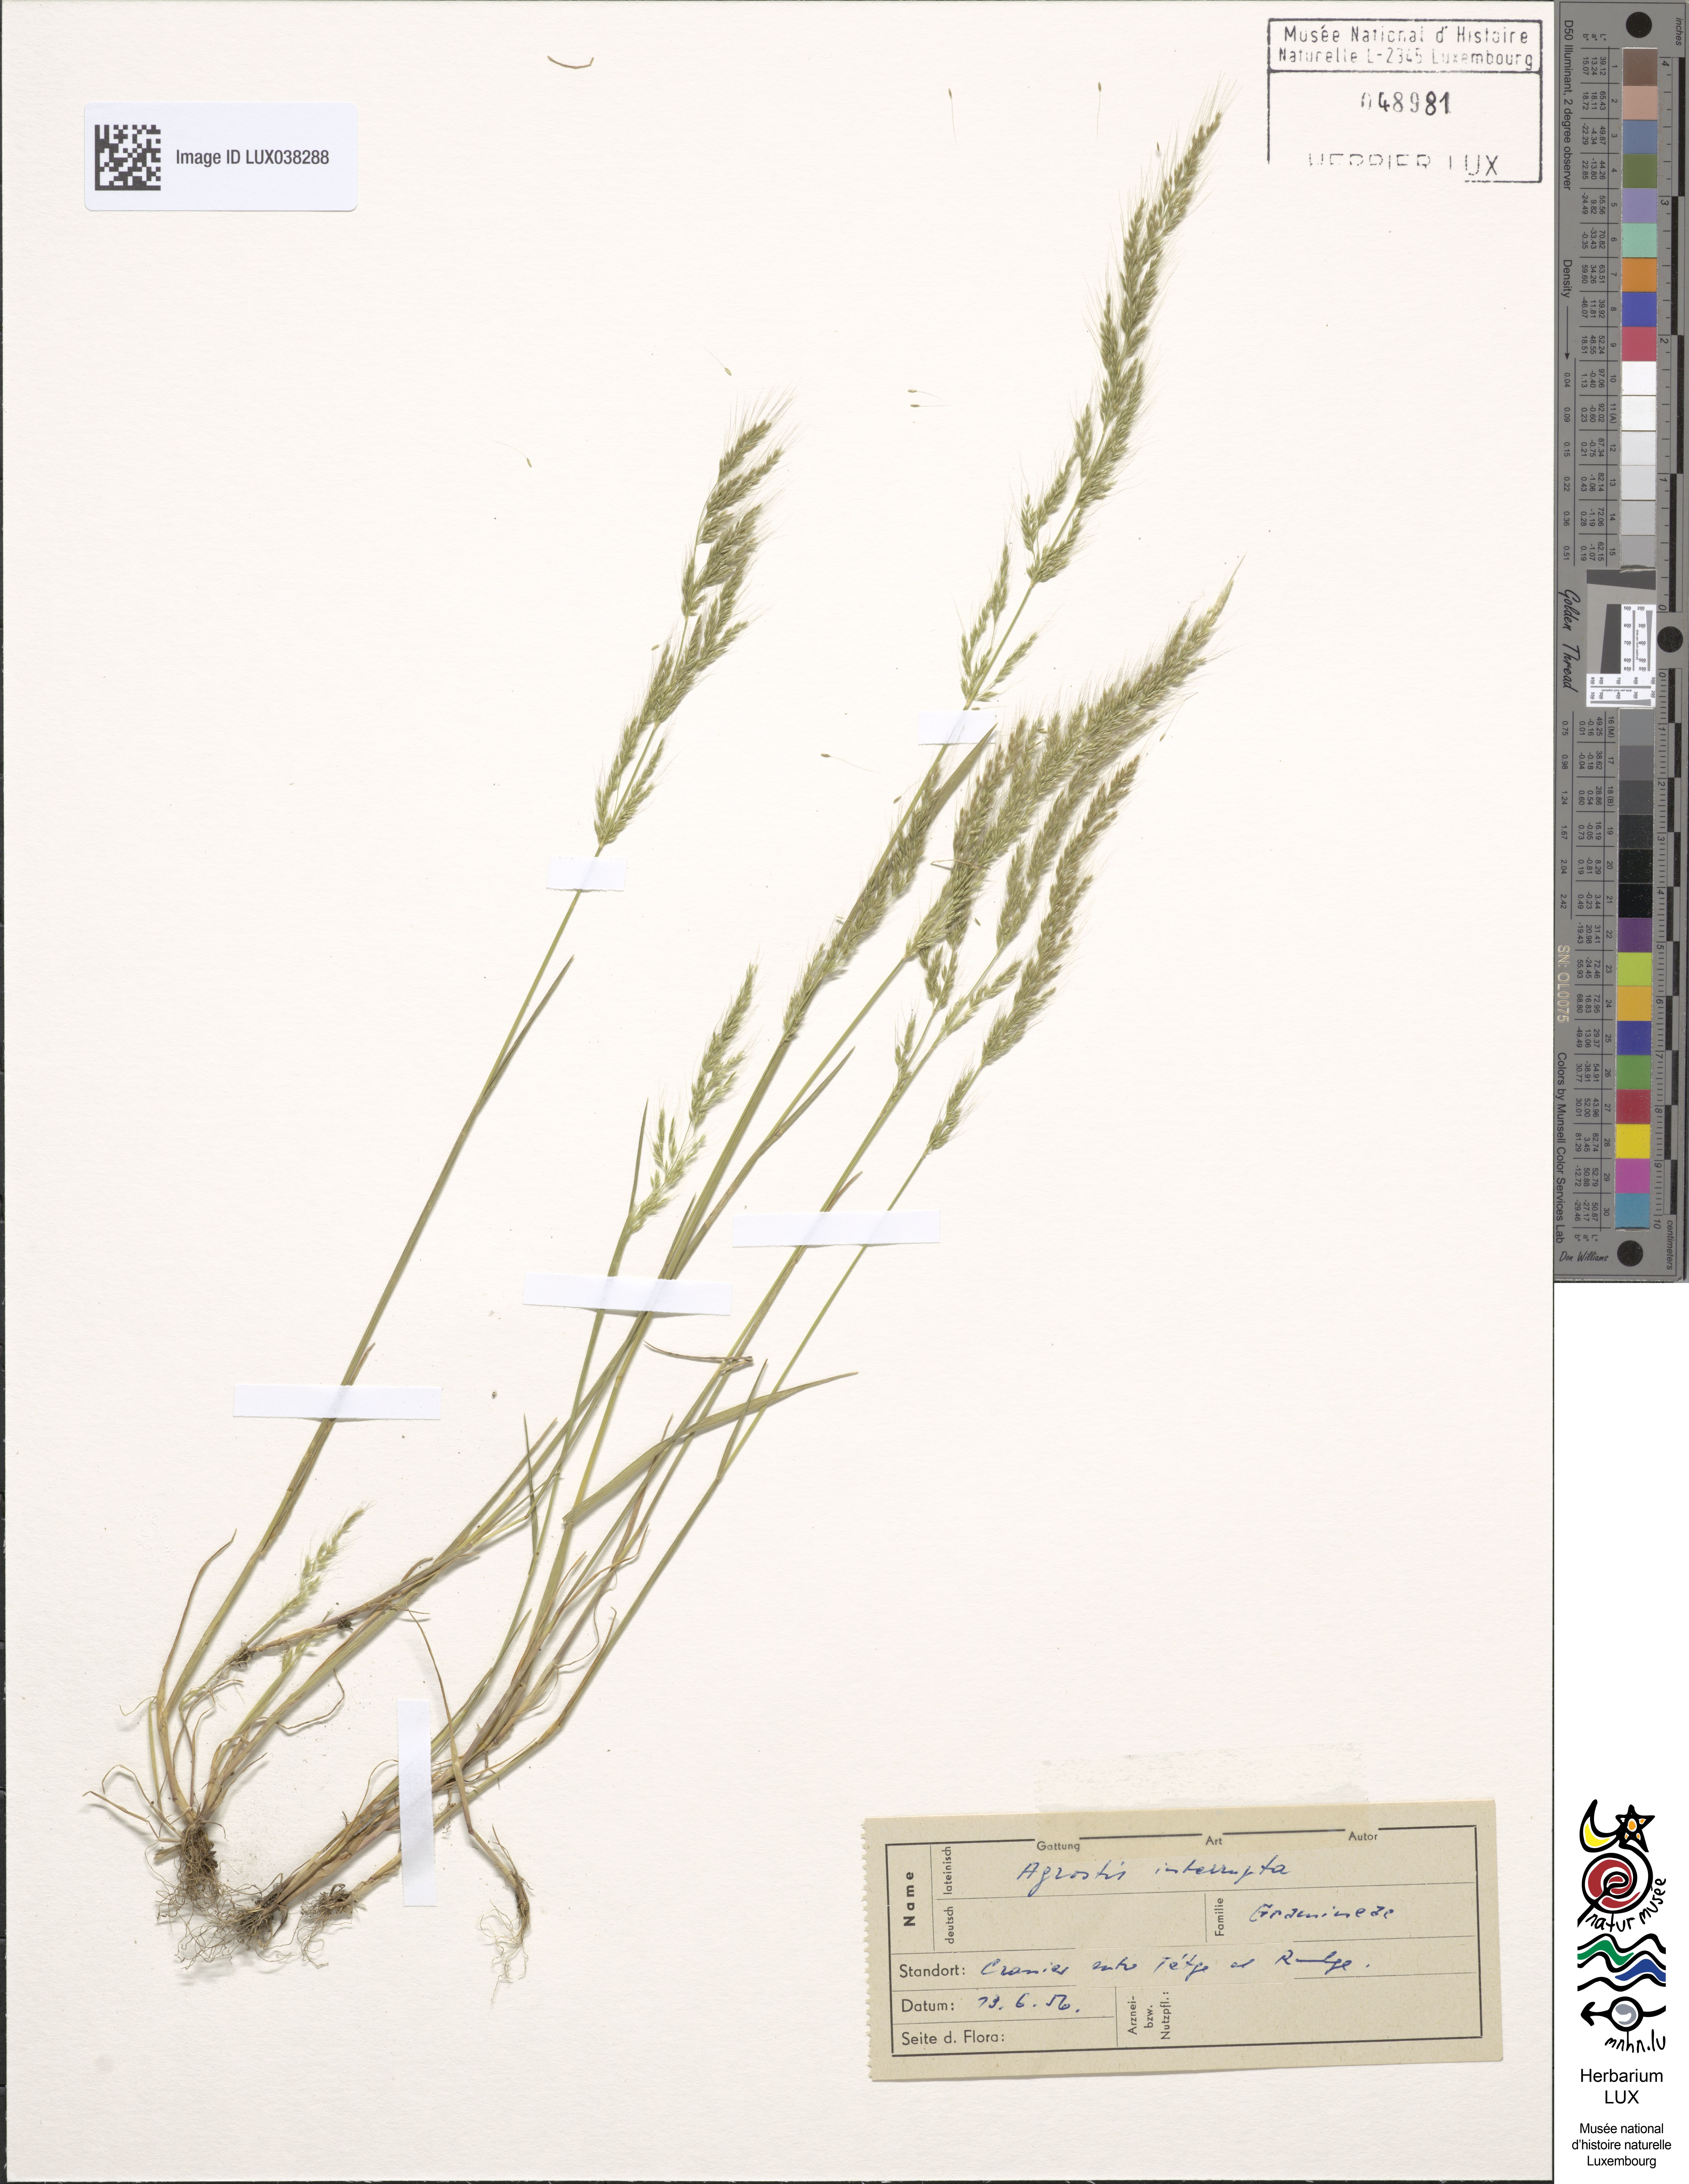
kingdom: Plantae
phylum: Tracheophyta
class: Liliopsida
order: Poales
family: Poaceae
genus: Apera
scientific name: Apera interrupta
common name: Dense silky-bent
